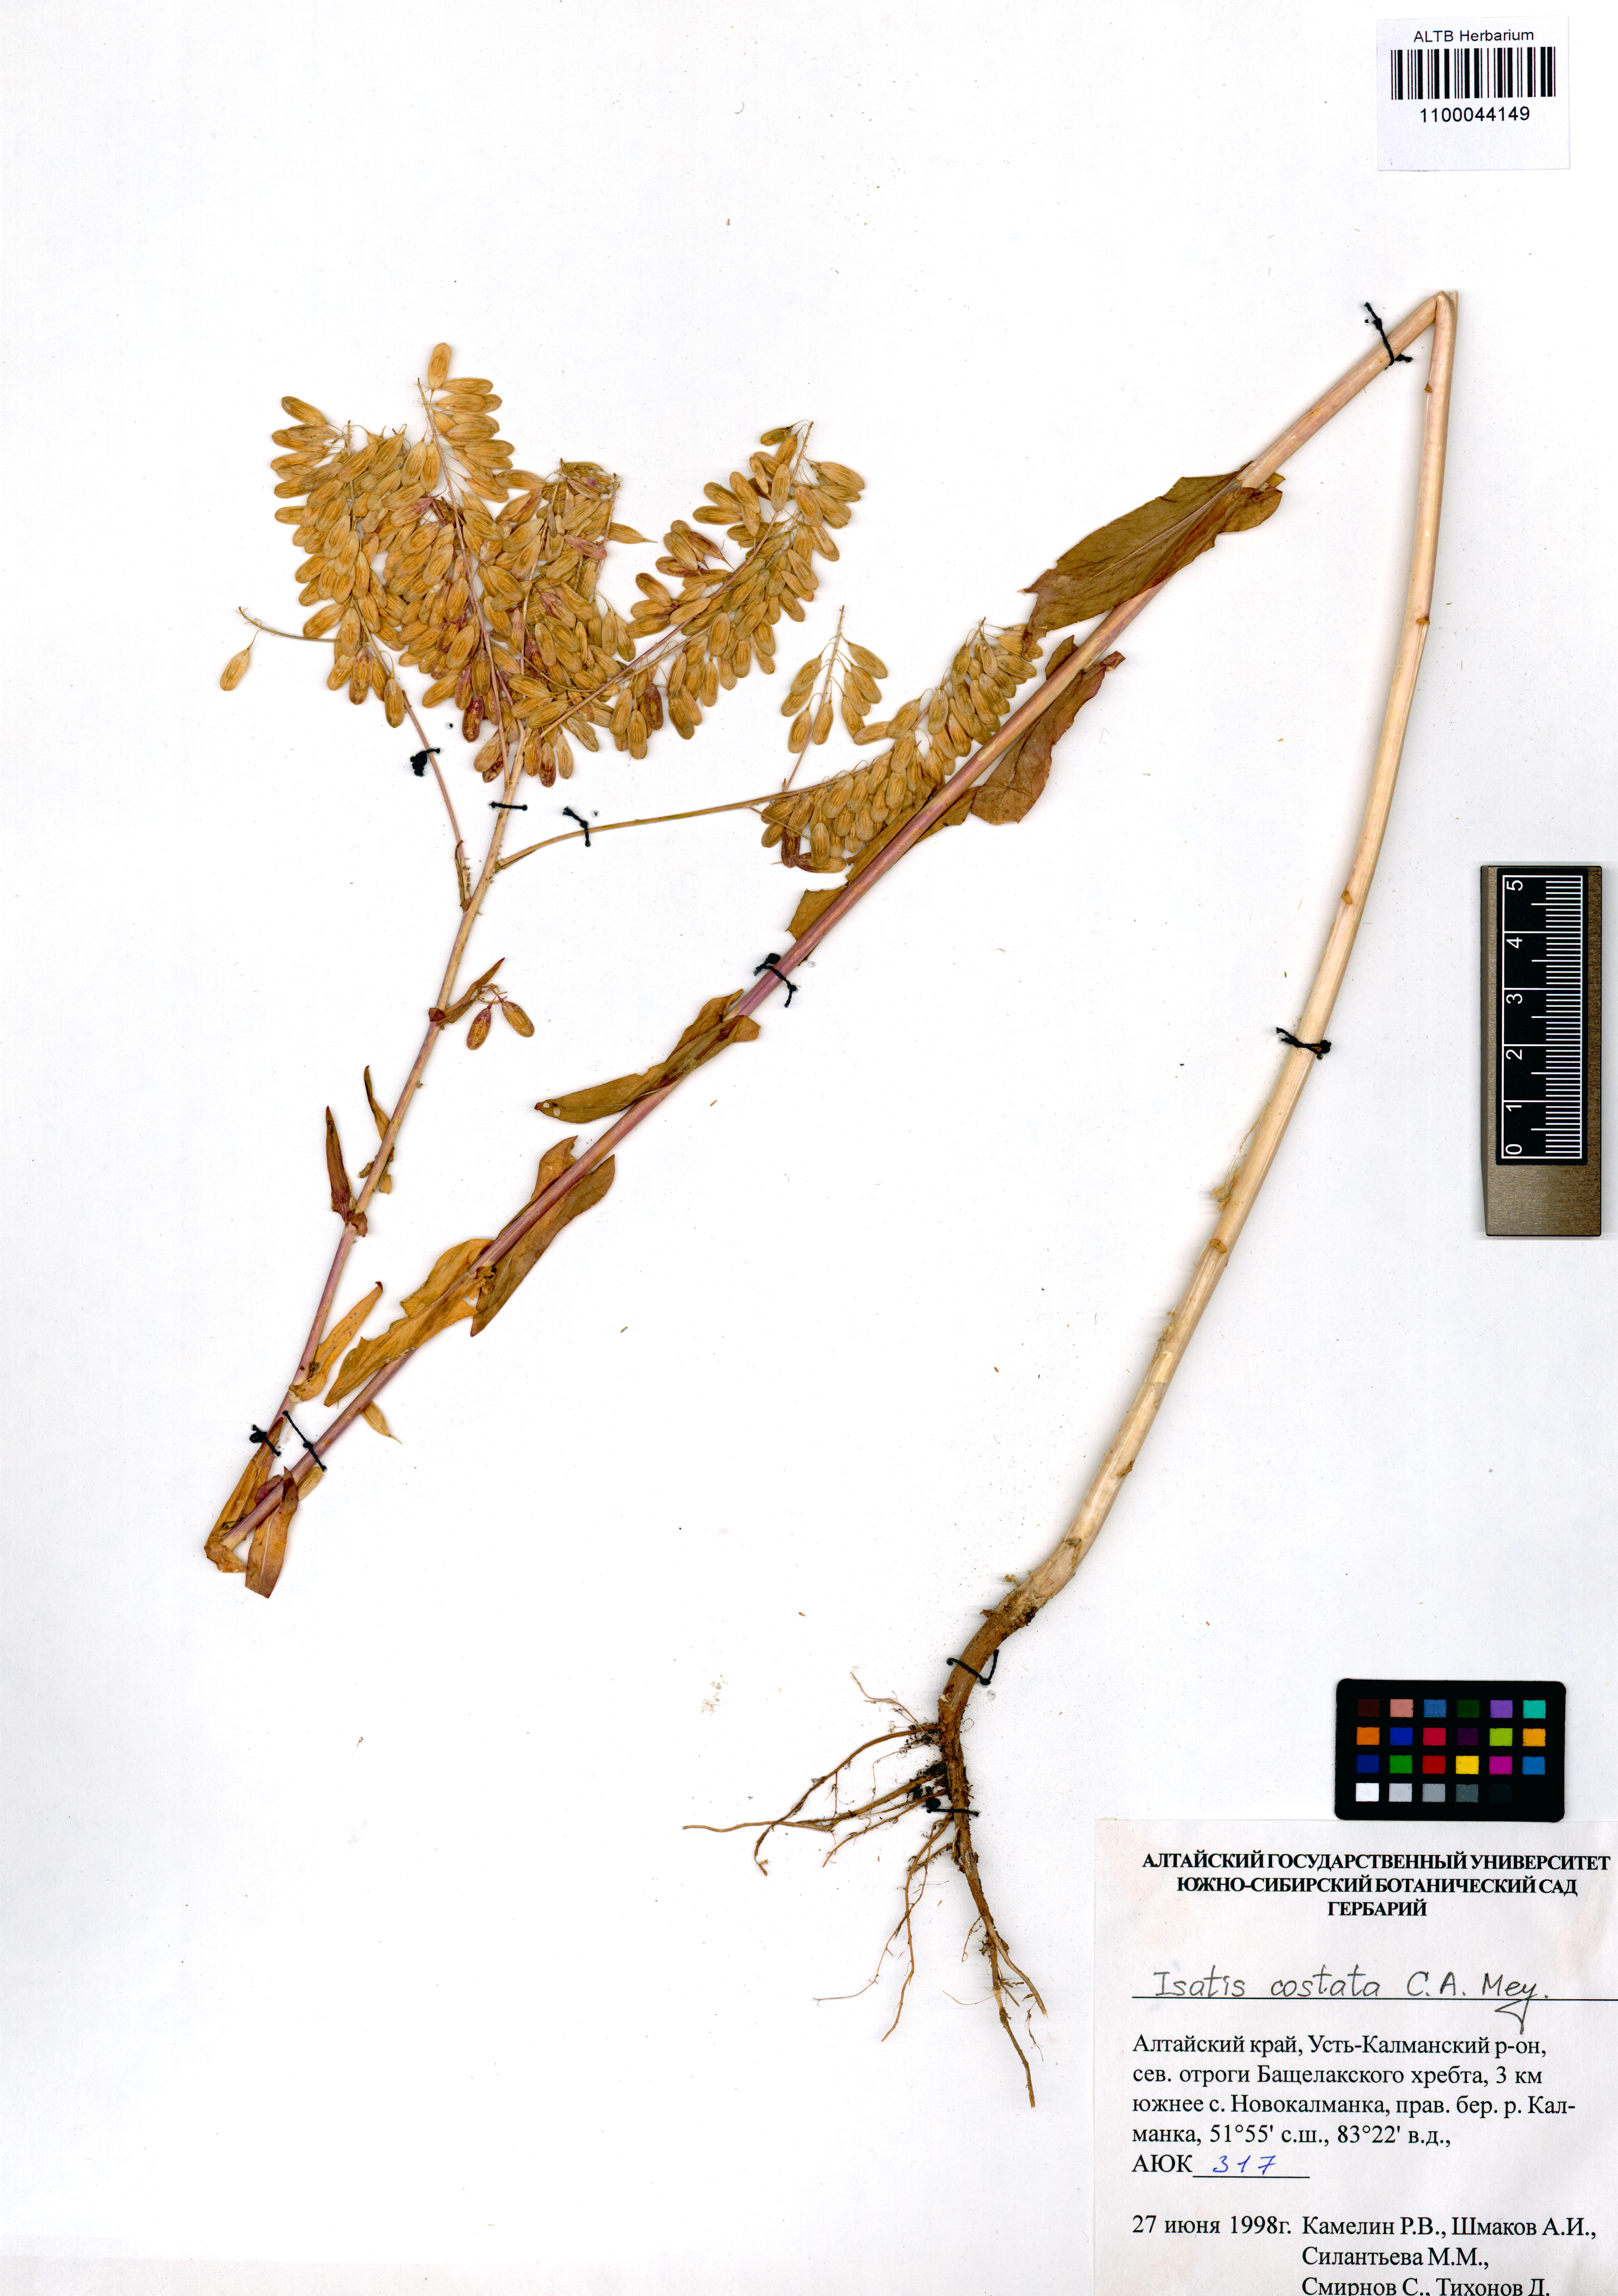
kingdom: Plantae
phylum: Tracheophyta
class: Magnoliopsida
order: Brassicales
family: Brassicaceae
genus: Isatis
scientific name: Isatis costata
